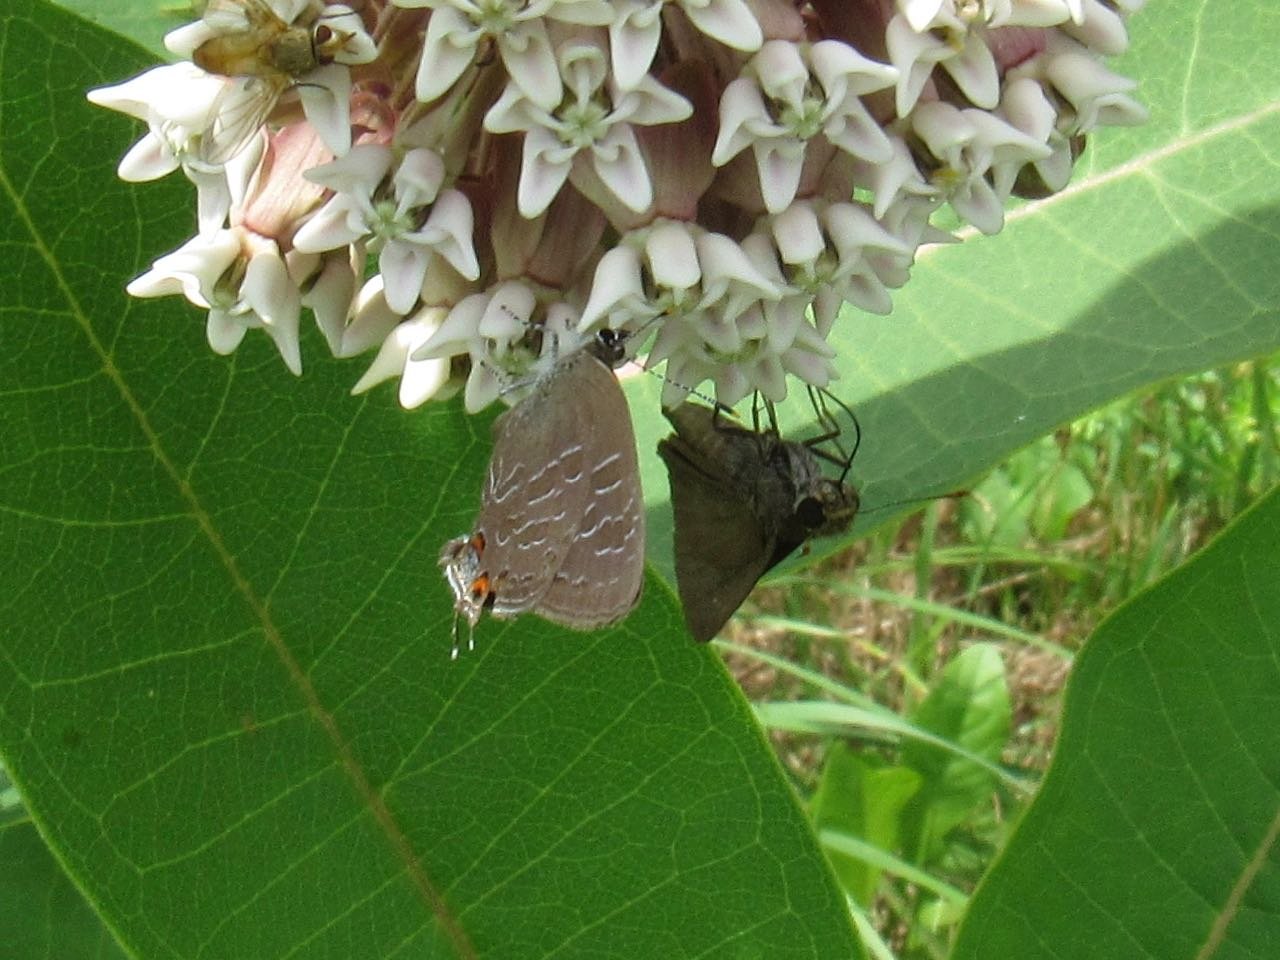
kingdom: Animalia
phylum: Arthropoda
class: Insecta
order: Lepidoptera
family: Lycaenidae
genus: Satyrium
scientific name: Satyrium liparops
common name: Striped Hairstreak
